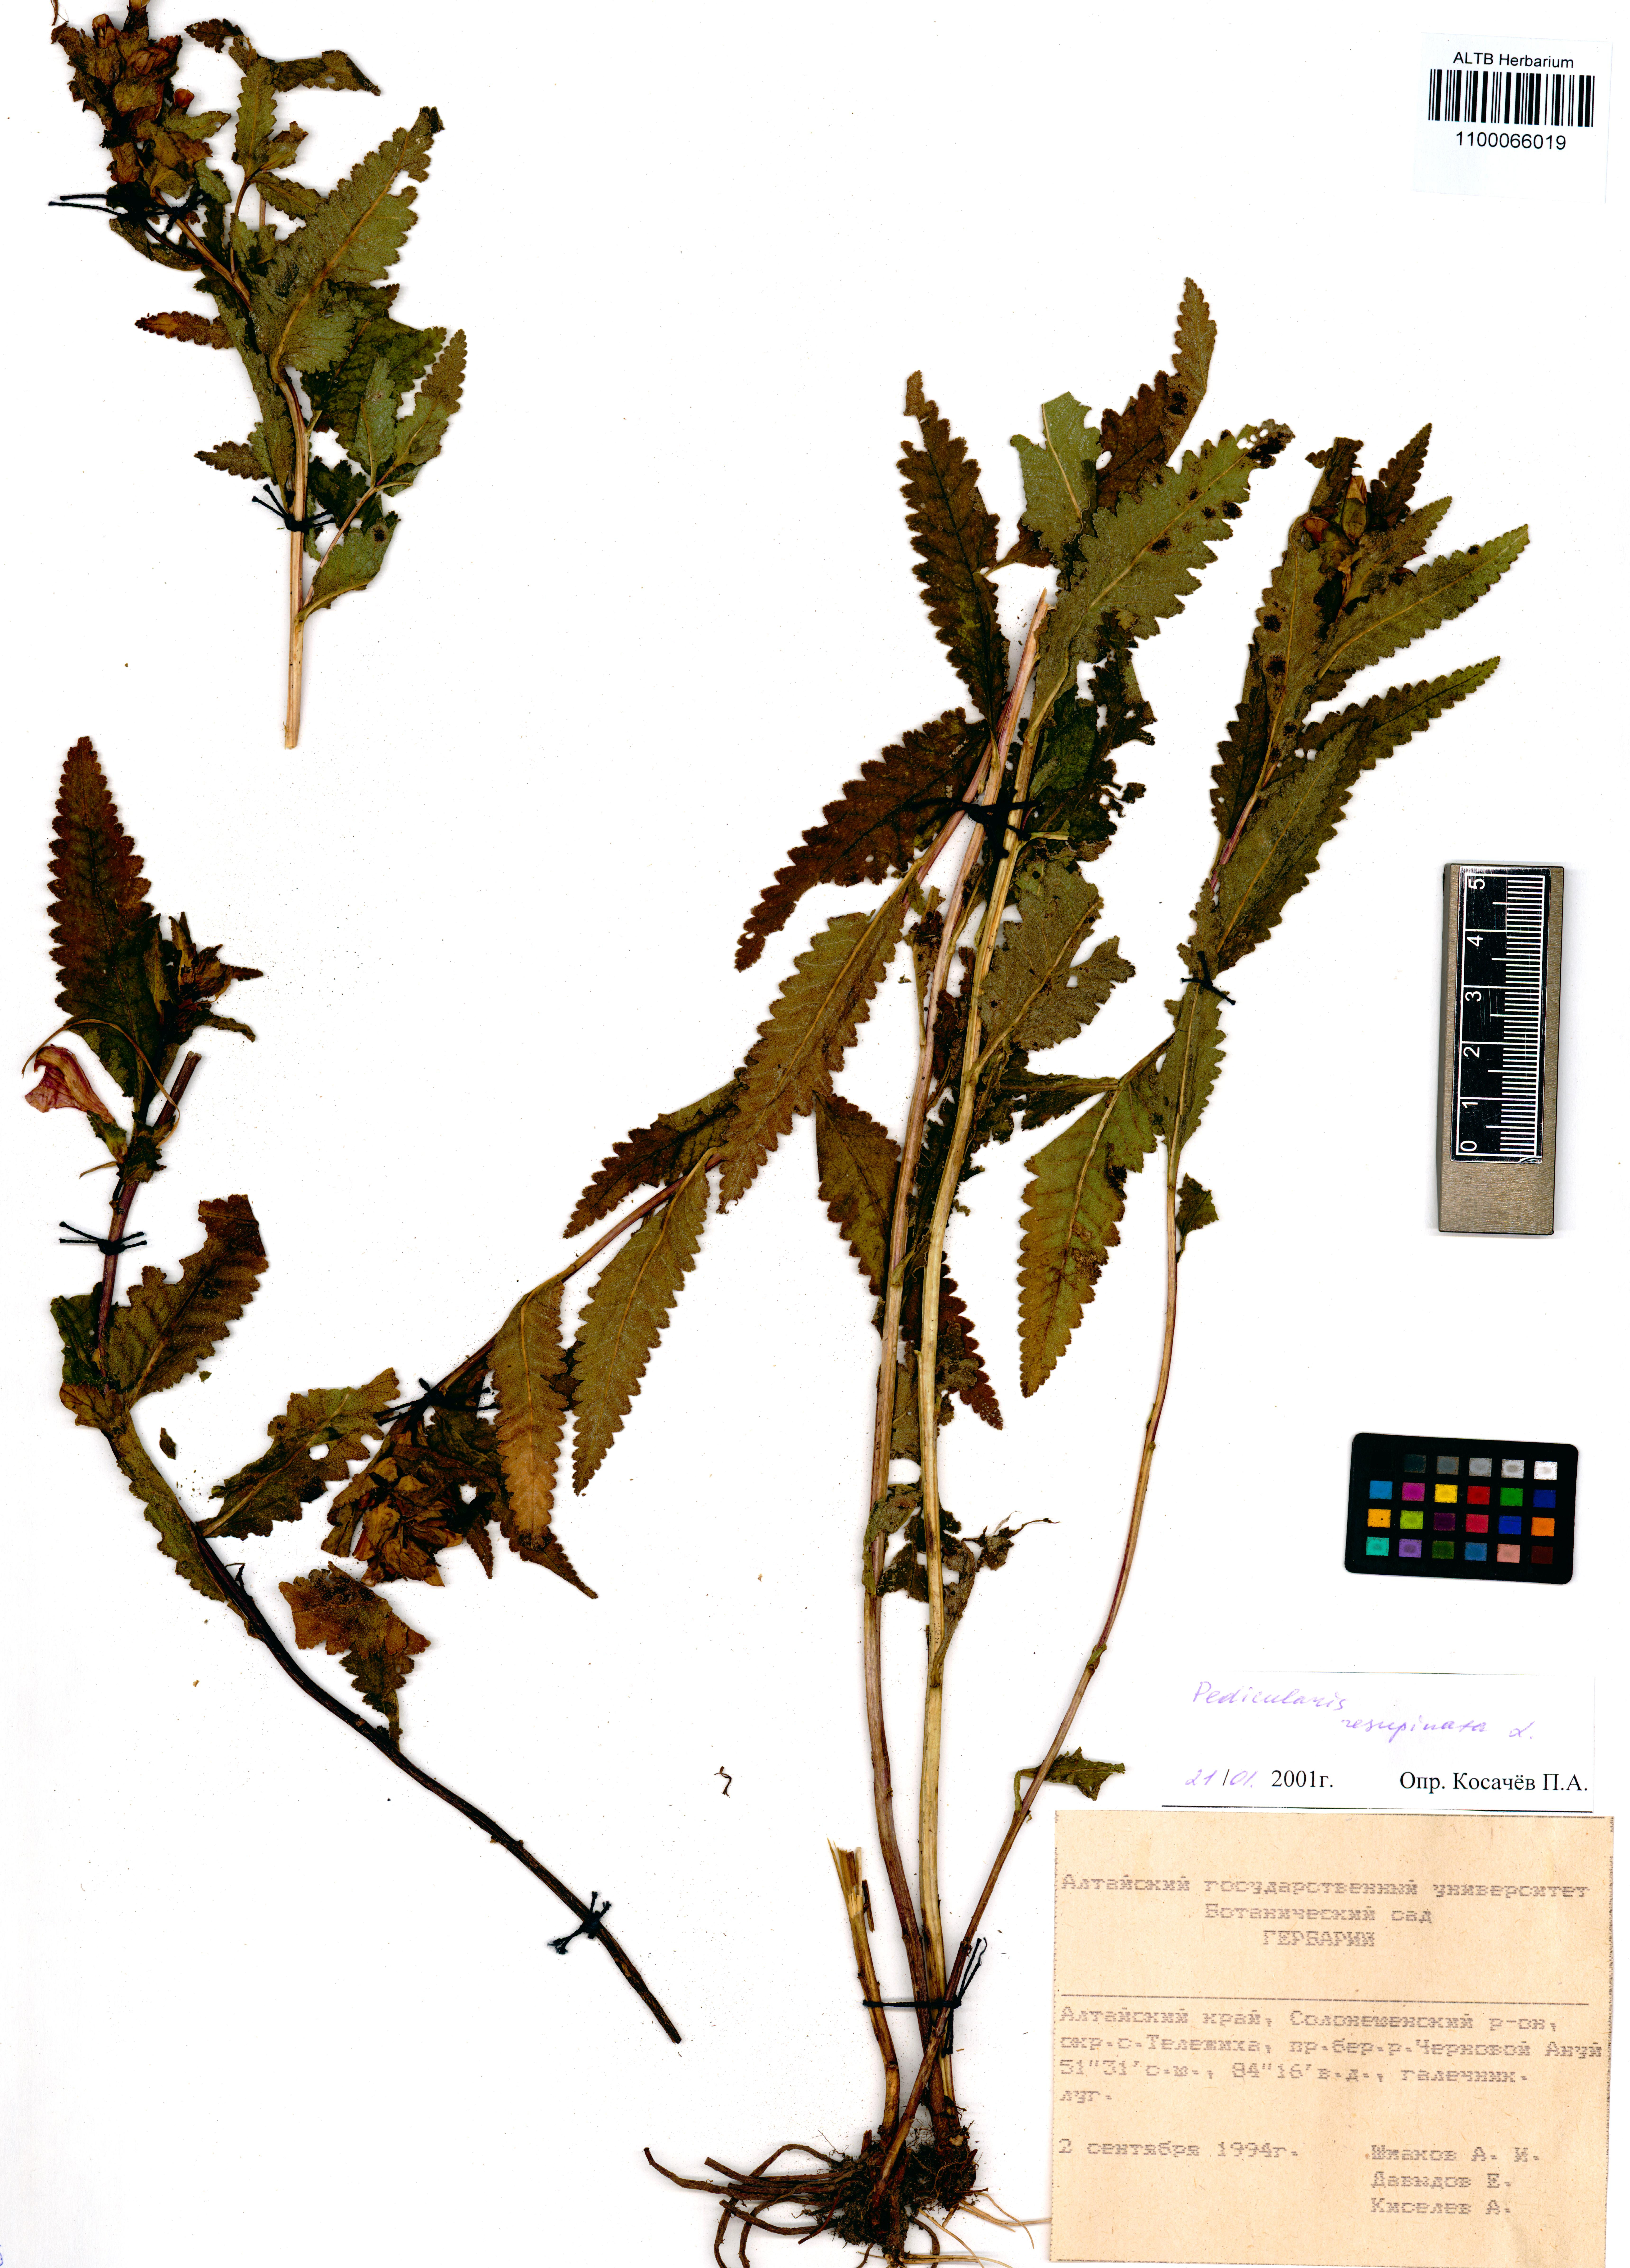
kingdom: Plantae
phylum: Tracheophyta
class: Magnoliopsida
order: Lamiales
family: Orobanchaceae
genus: Pedicularis
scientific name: Pedicularis resupinata
